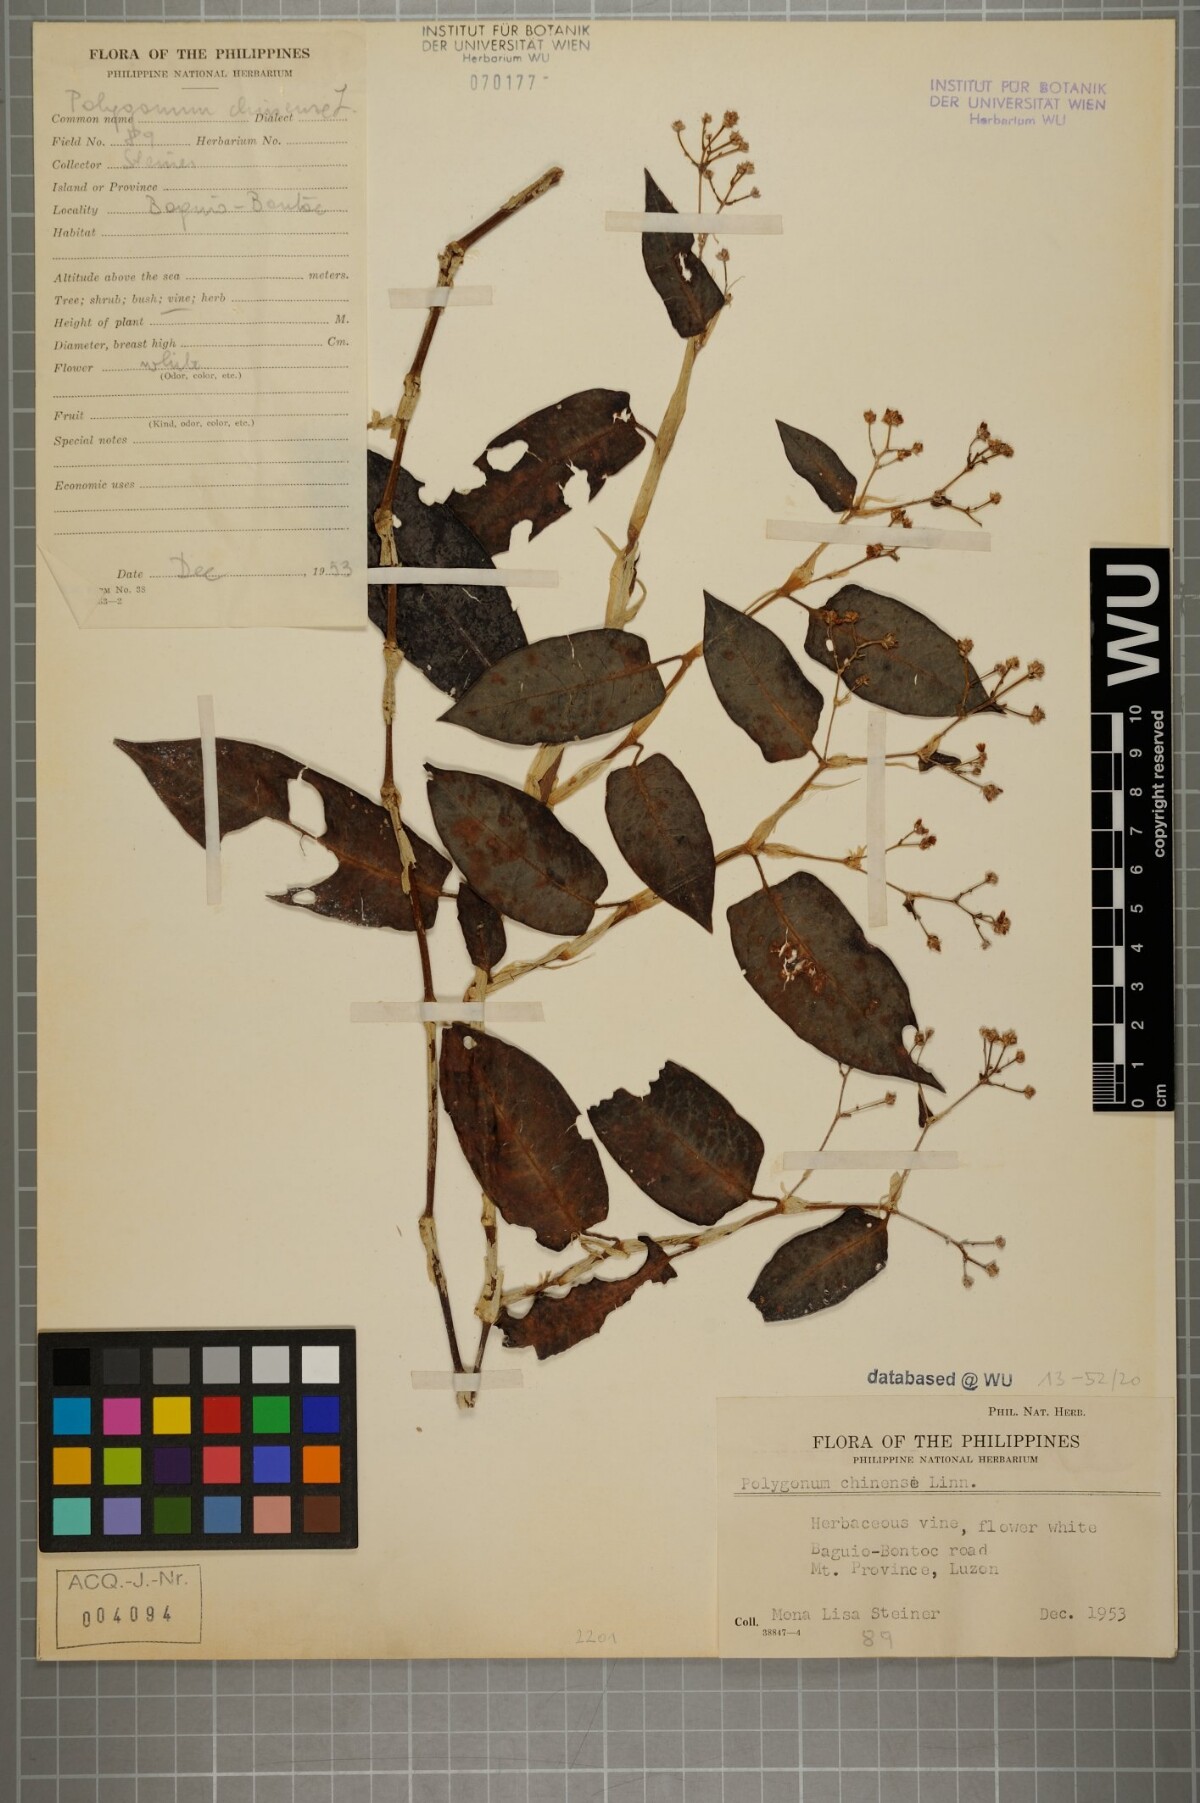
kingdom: Plantae
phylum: Tracheophyta
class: Magnoliopsida
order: Caryophyllales
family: Polygonaceae
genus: Persicaria
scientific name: Persicaria chinensis
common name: Chinese knotweed
